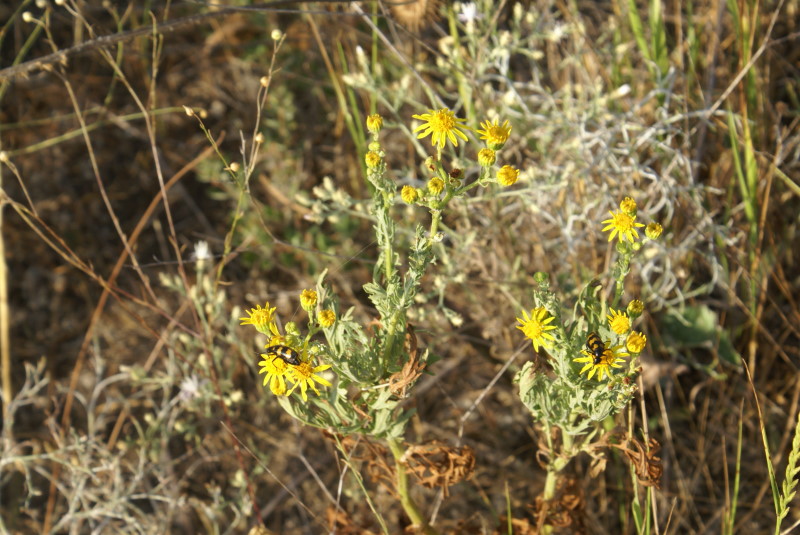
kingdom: Plantae
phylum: Tracheophyta
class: Magnoliopsida
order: Asterales
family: Asteraceae
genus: Jacobaea
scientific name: Jacobaea vulgaris
